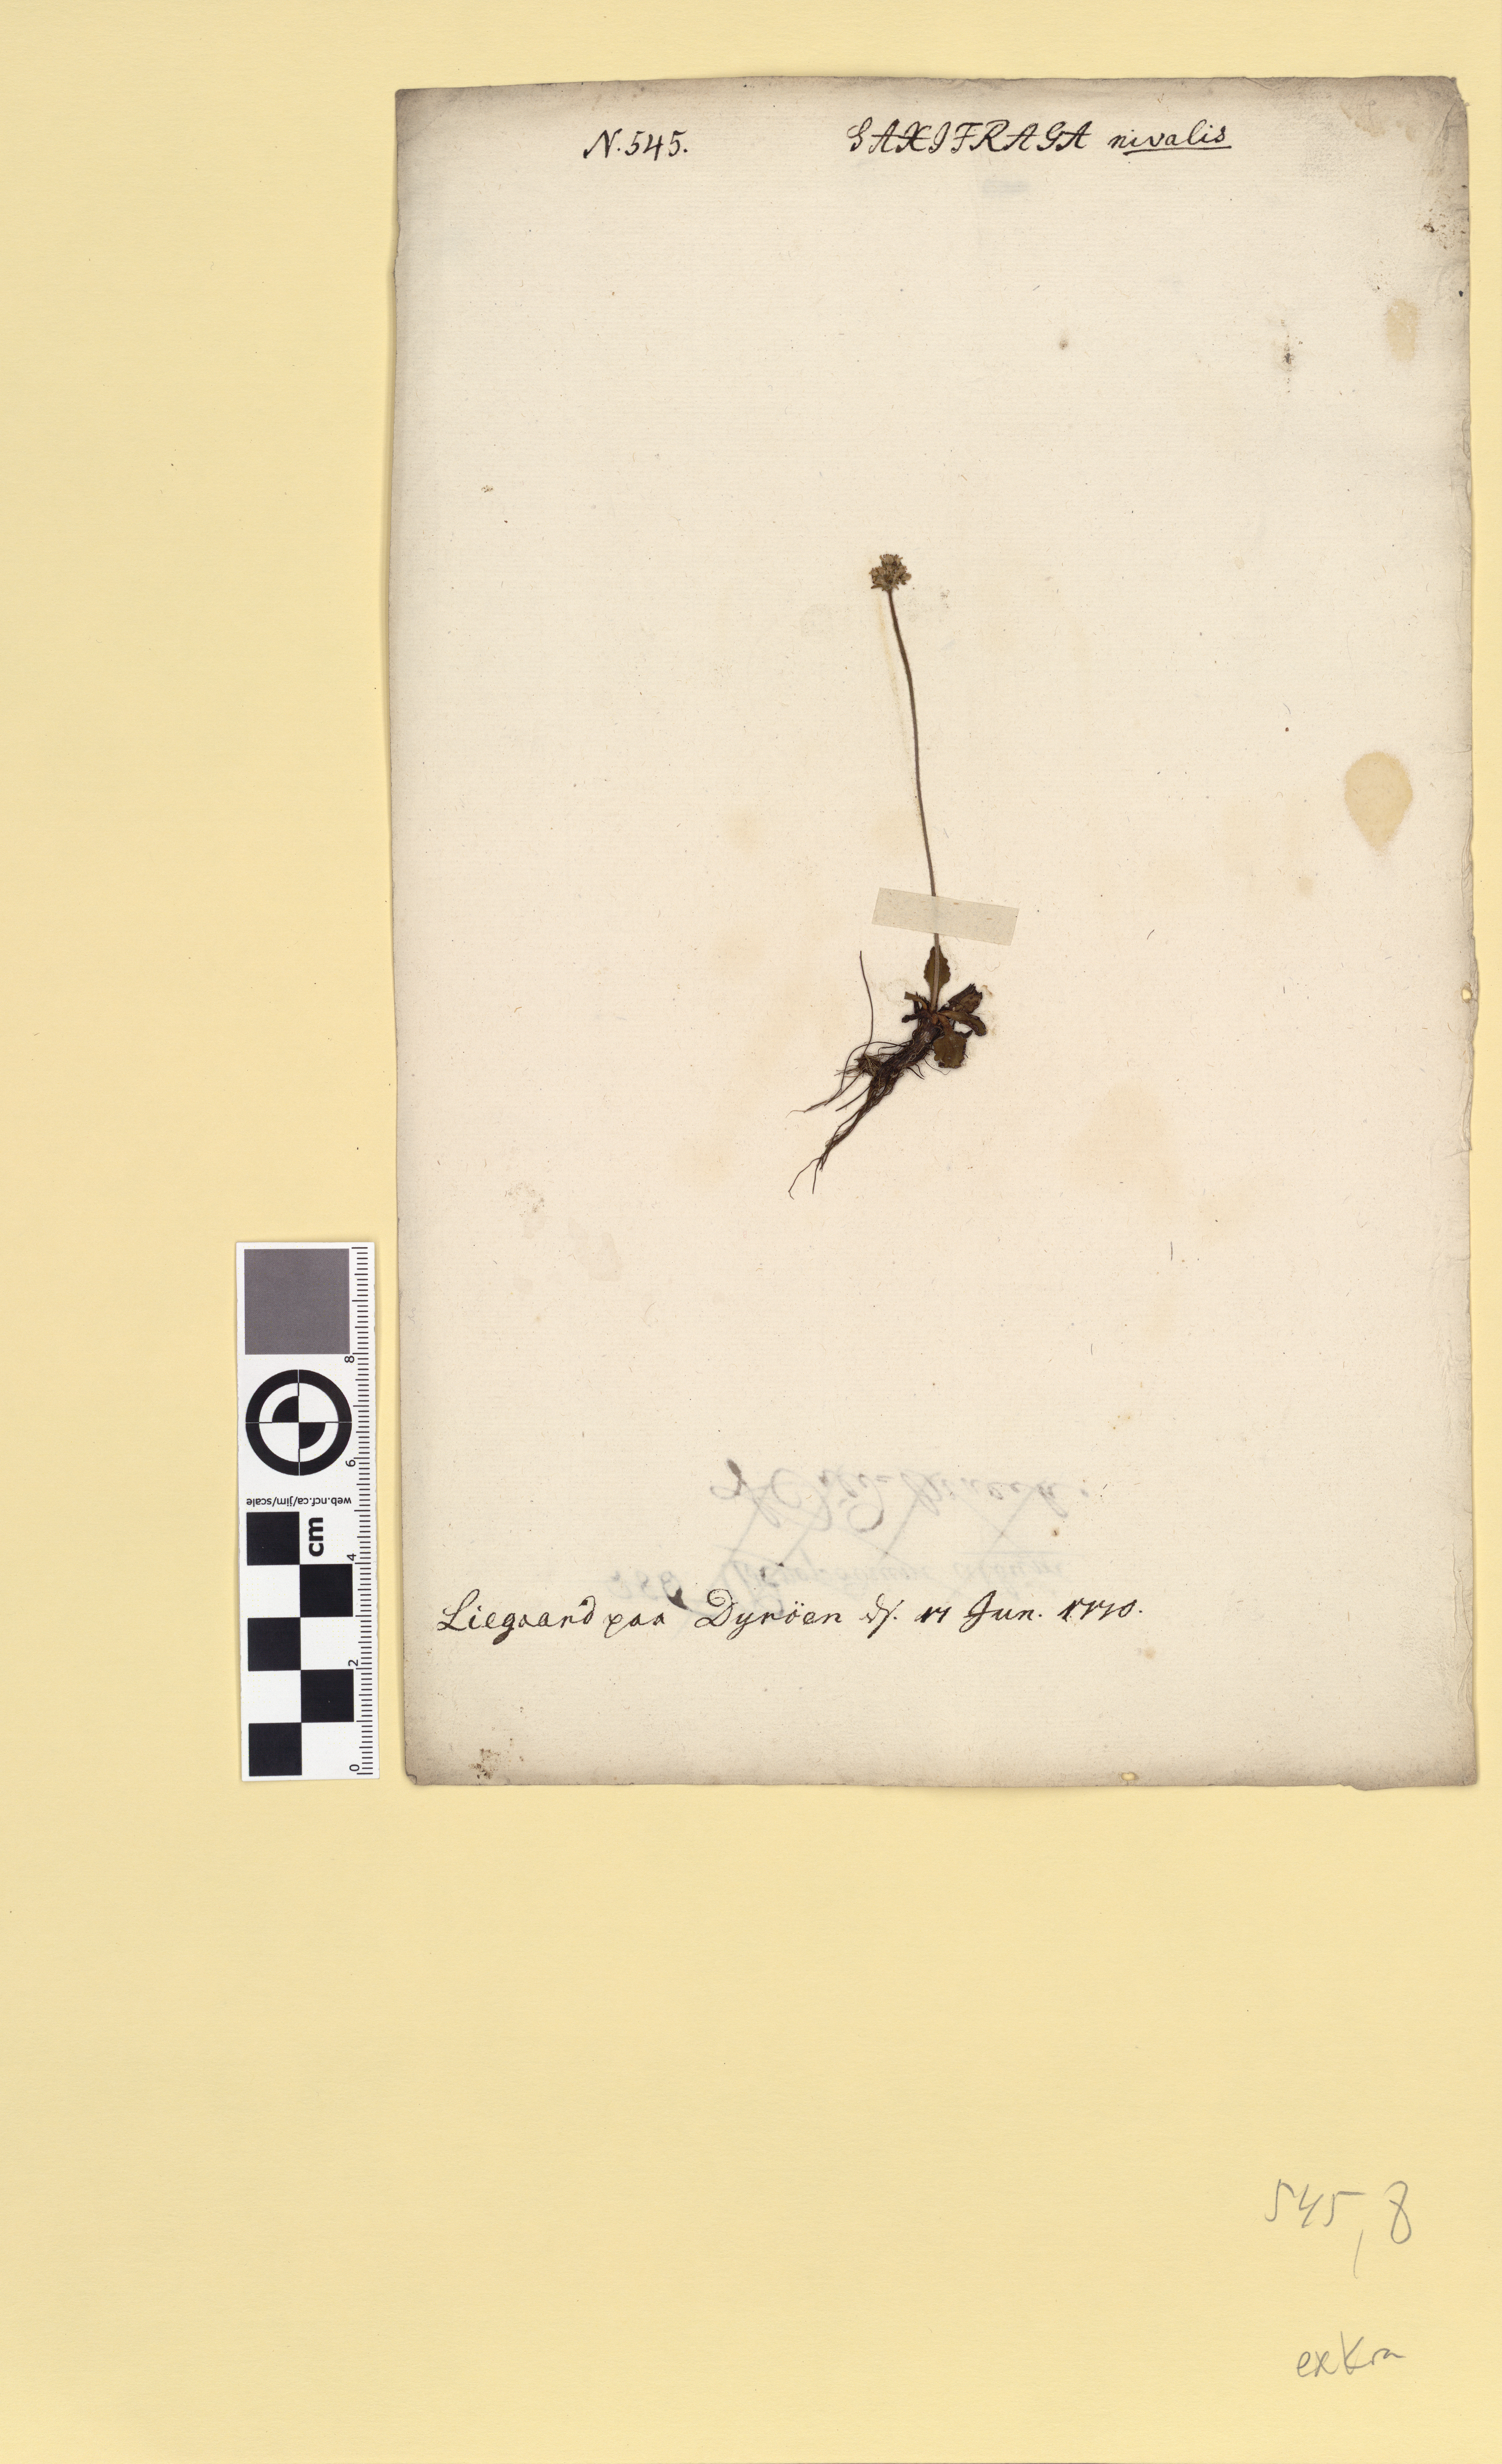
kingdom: Plantae
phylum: Tracheophyta
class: Magnoliopsida
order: Saxifragales
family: Saxifragaceae
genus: Micranthes
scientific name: Micranthes nivalis
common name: Alpine saxifrage
